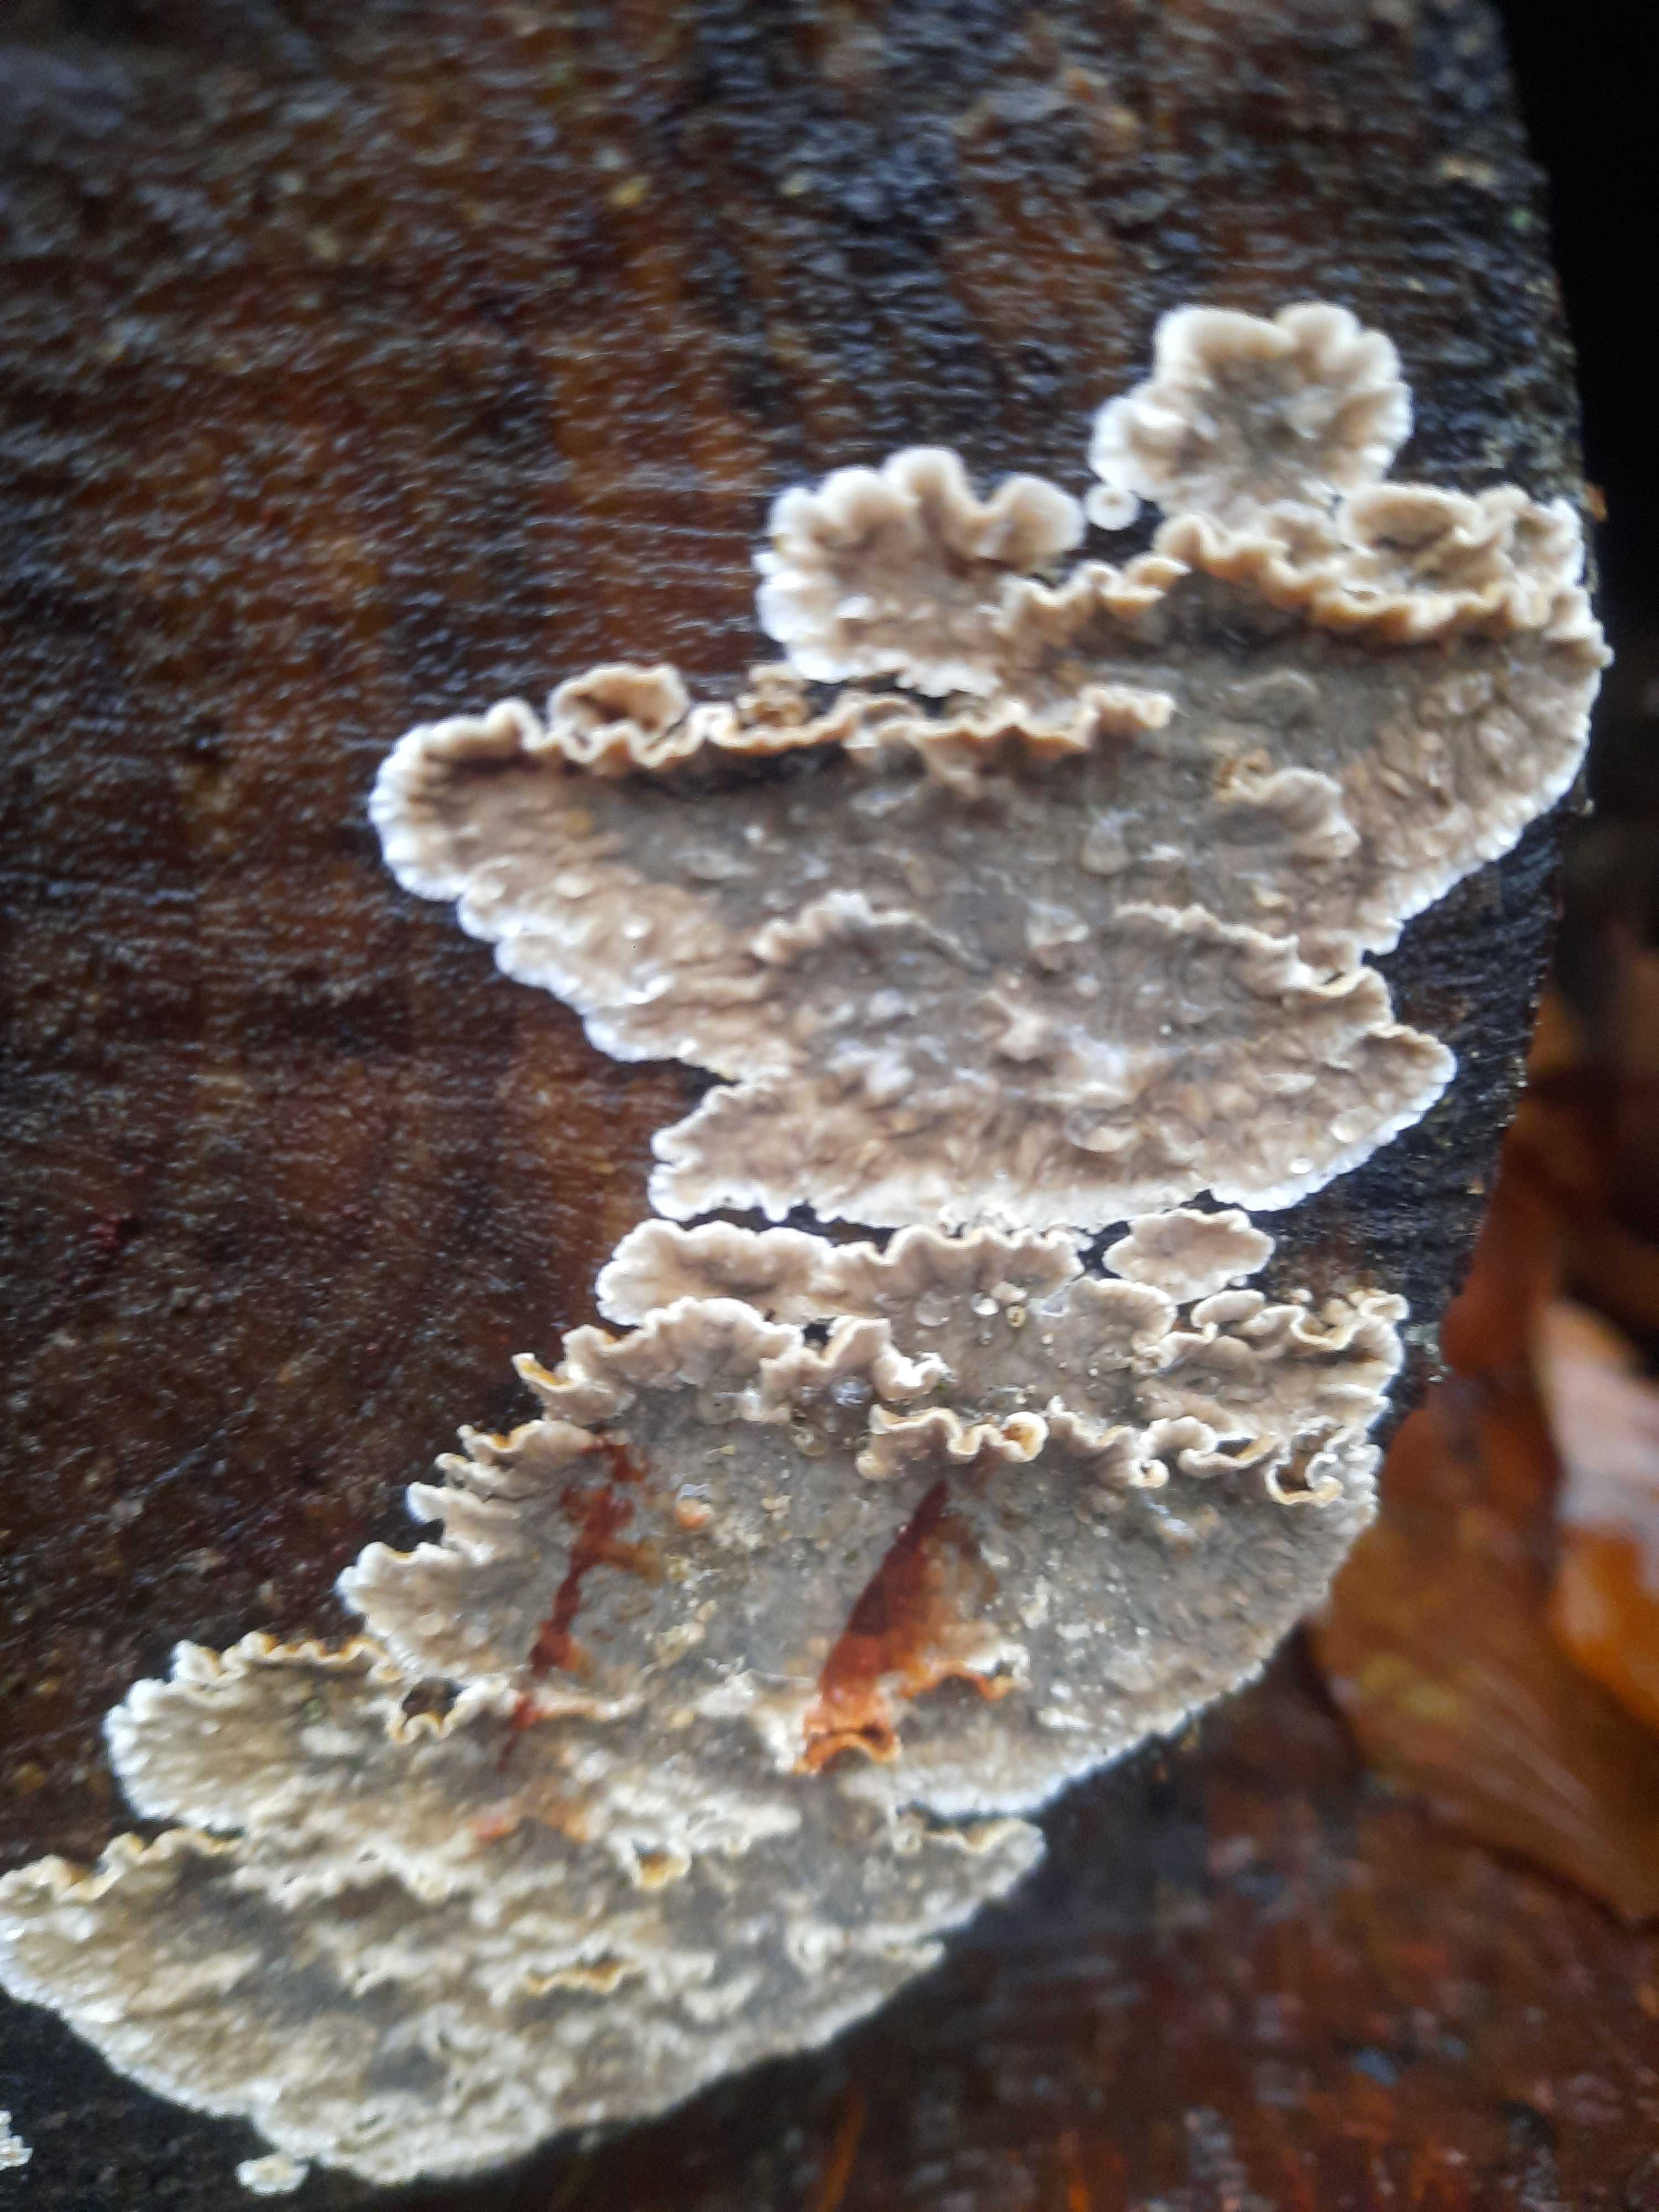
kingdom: Fungi
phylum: Basidiomycota
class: Agaricomycetes
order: Russulales
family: Stereaceae
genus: Stereum
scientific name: Stereum sanguinolentum
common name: blødende lædersvamp
